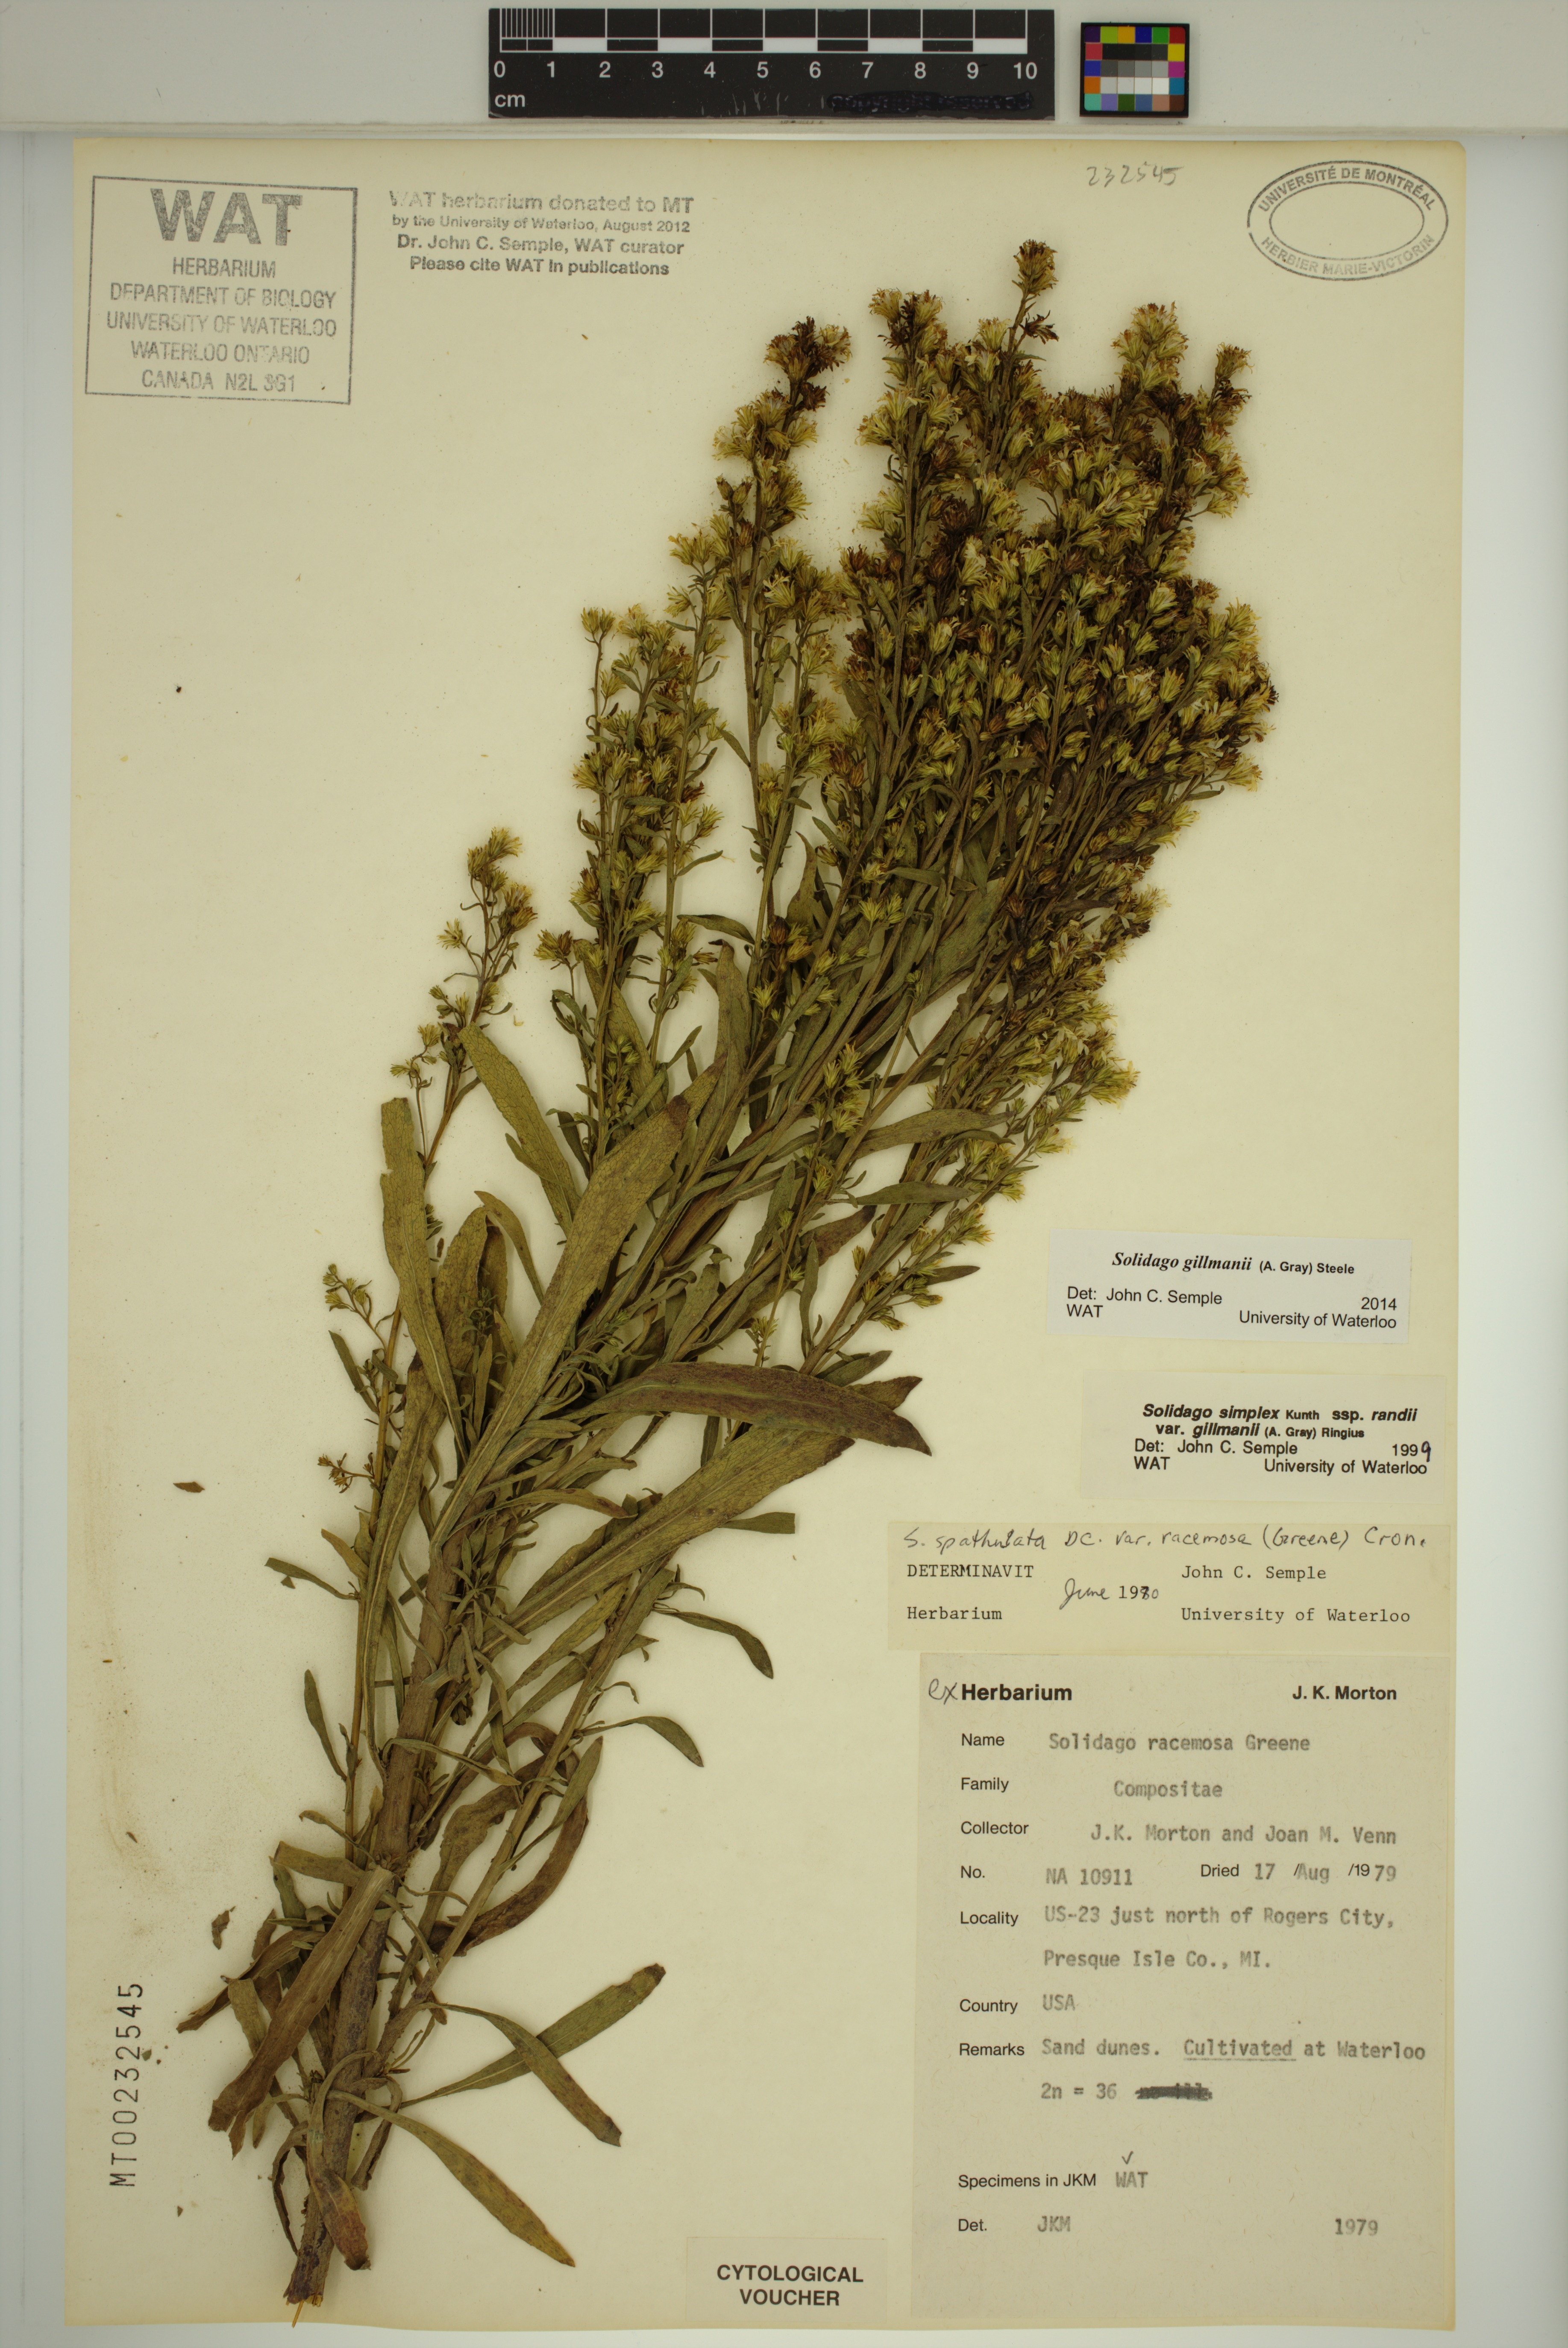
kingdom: Plantae
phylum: Tracheophyta
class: Magnoliopsida
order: Asterales
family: Asteraceae
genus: Solidago
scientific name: Solidago gillmanii
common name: Gillman's goldenrod
